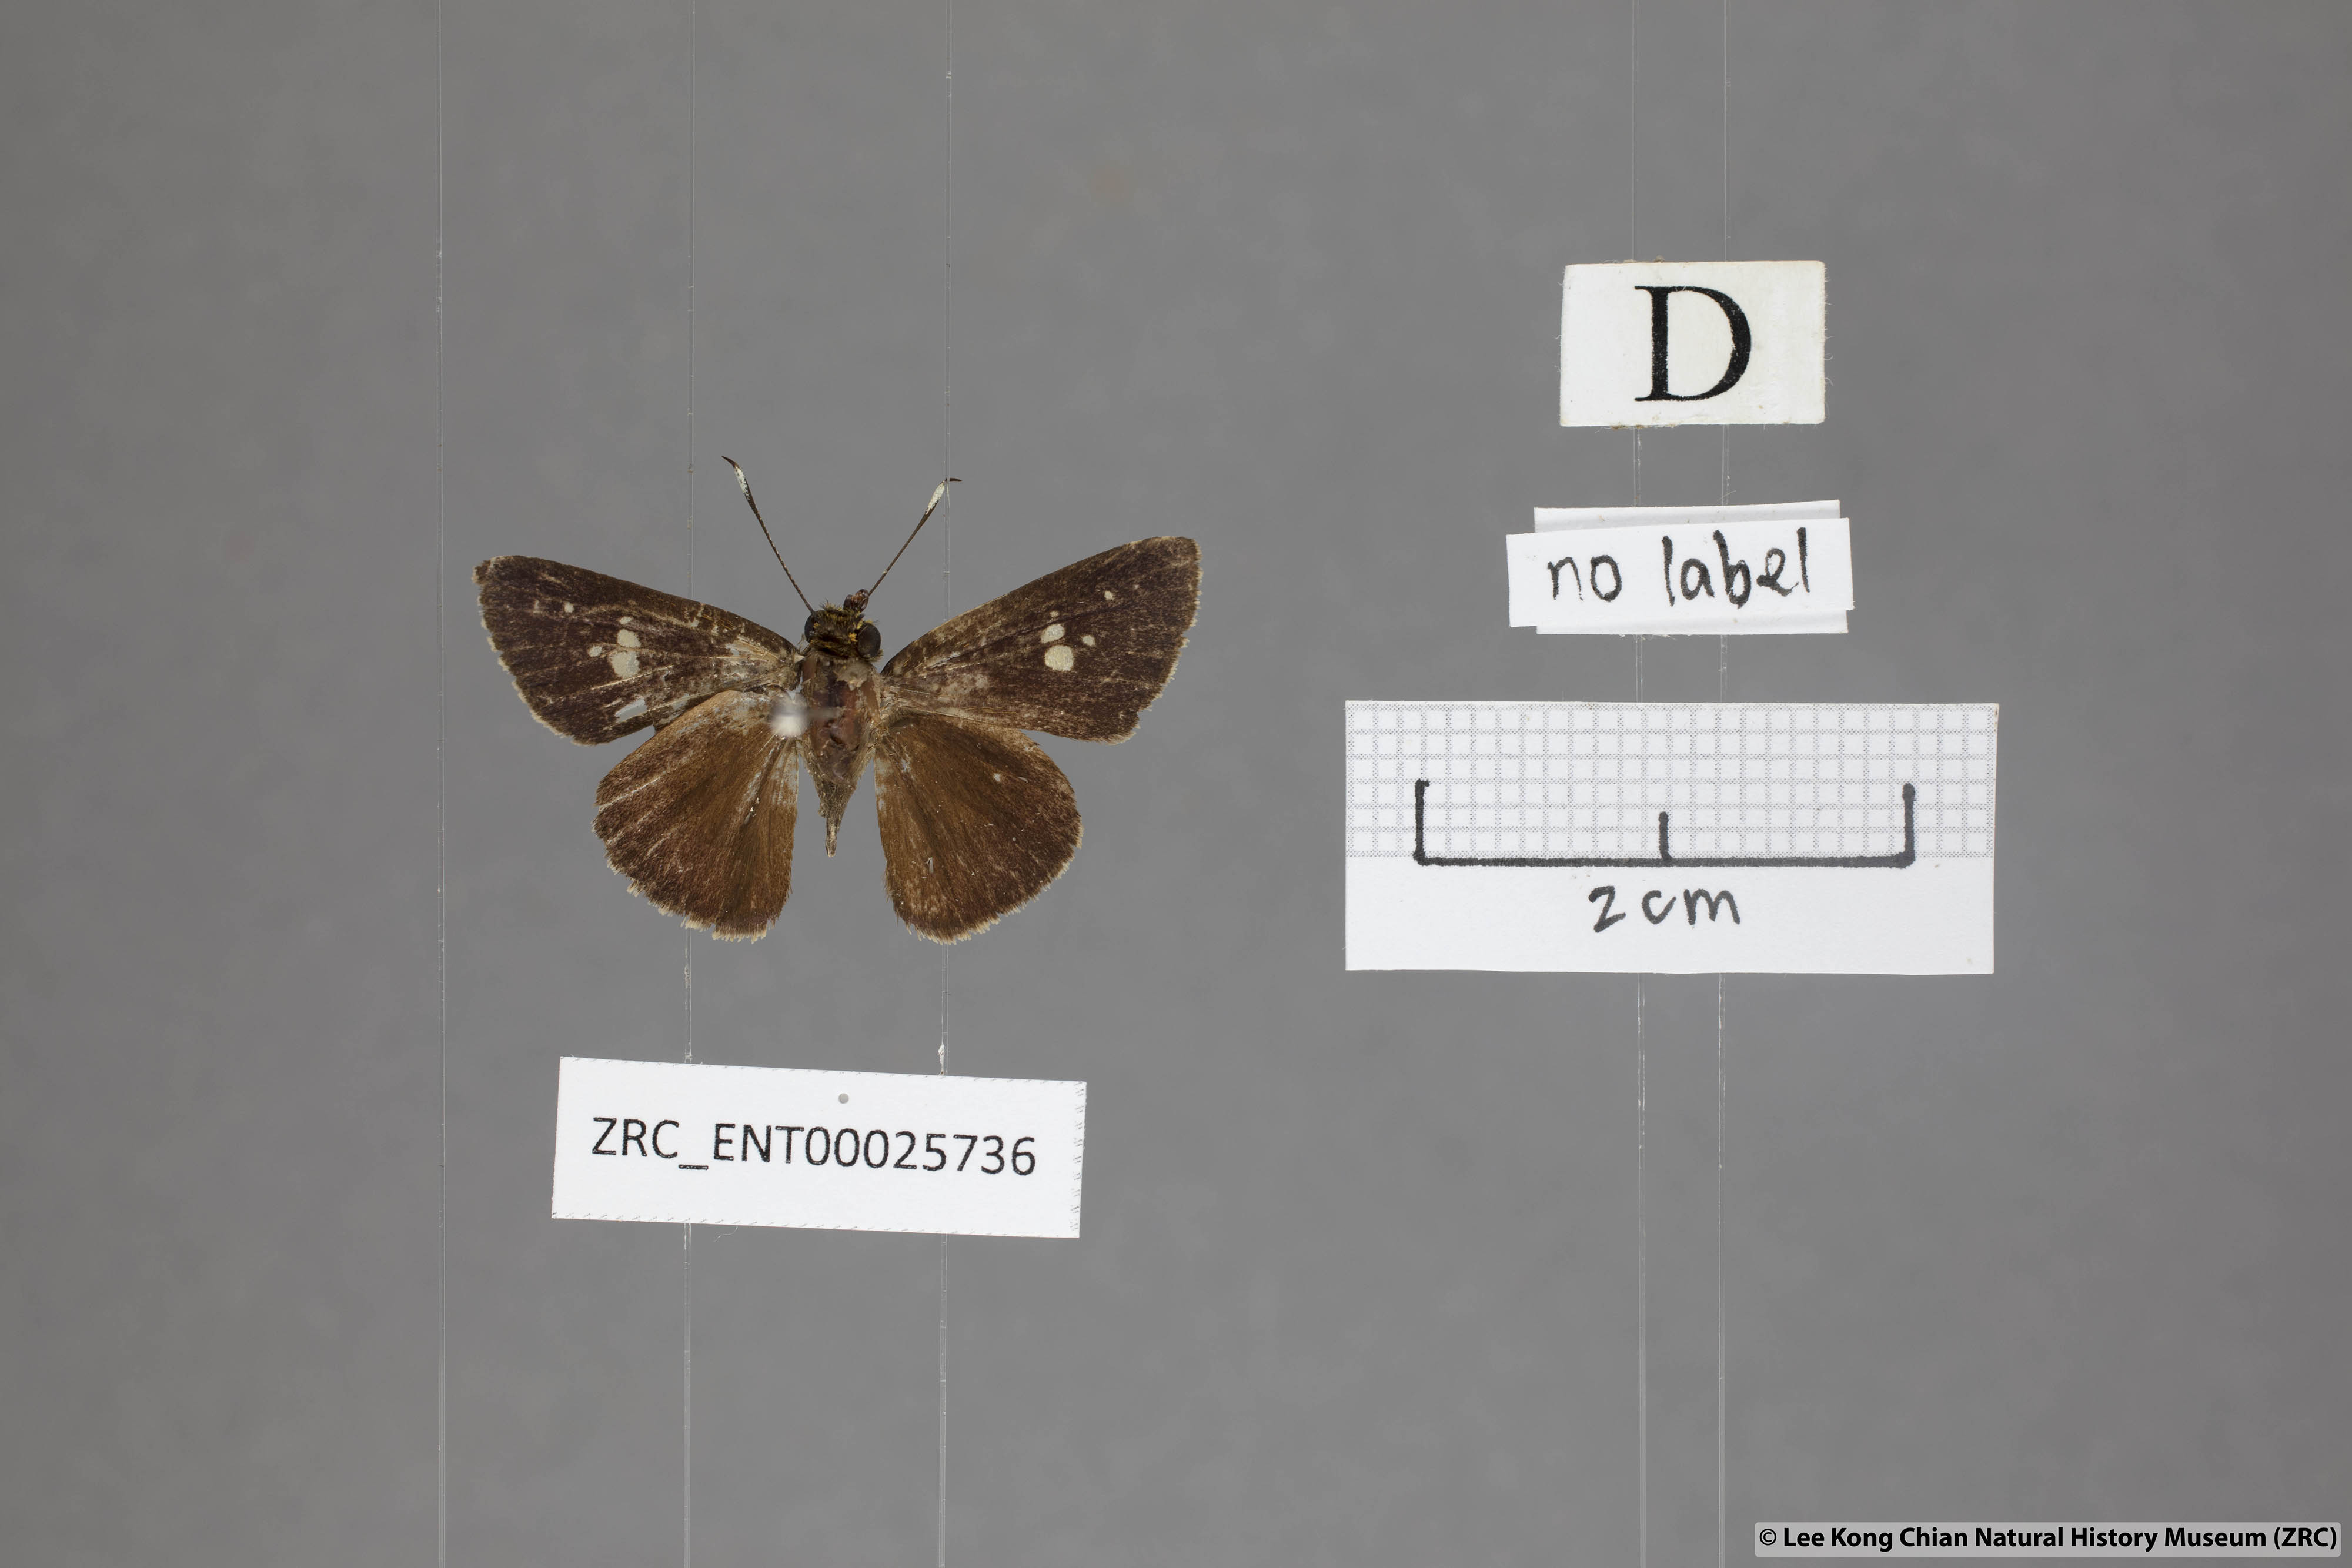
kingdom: Animalia
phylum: Arthropoda
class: Insecta
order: Lepidoptera
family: Hesperiidae
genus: Zographetus
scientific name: Zographetus ogygia
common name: Purple-spotted flitter
